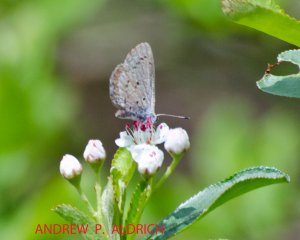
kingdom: Animalia
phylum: Arthropoda
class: Insecta
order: Lepidoptera
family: Lycaenidae
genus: Celastrina
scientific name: Celastrina lucia
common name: Northern Spring Azure
